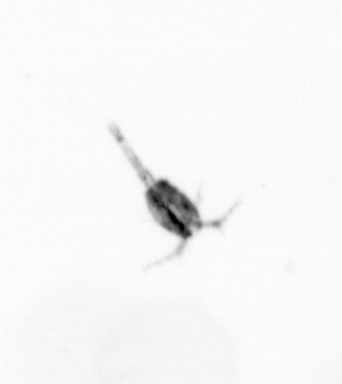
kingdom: Animalia
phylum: Arthropoda
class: Copepoda
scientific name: Copepoda
